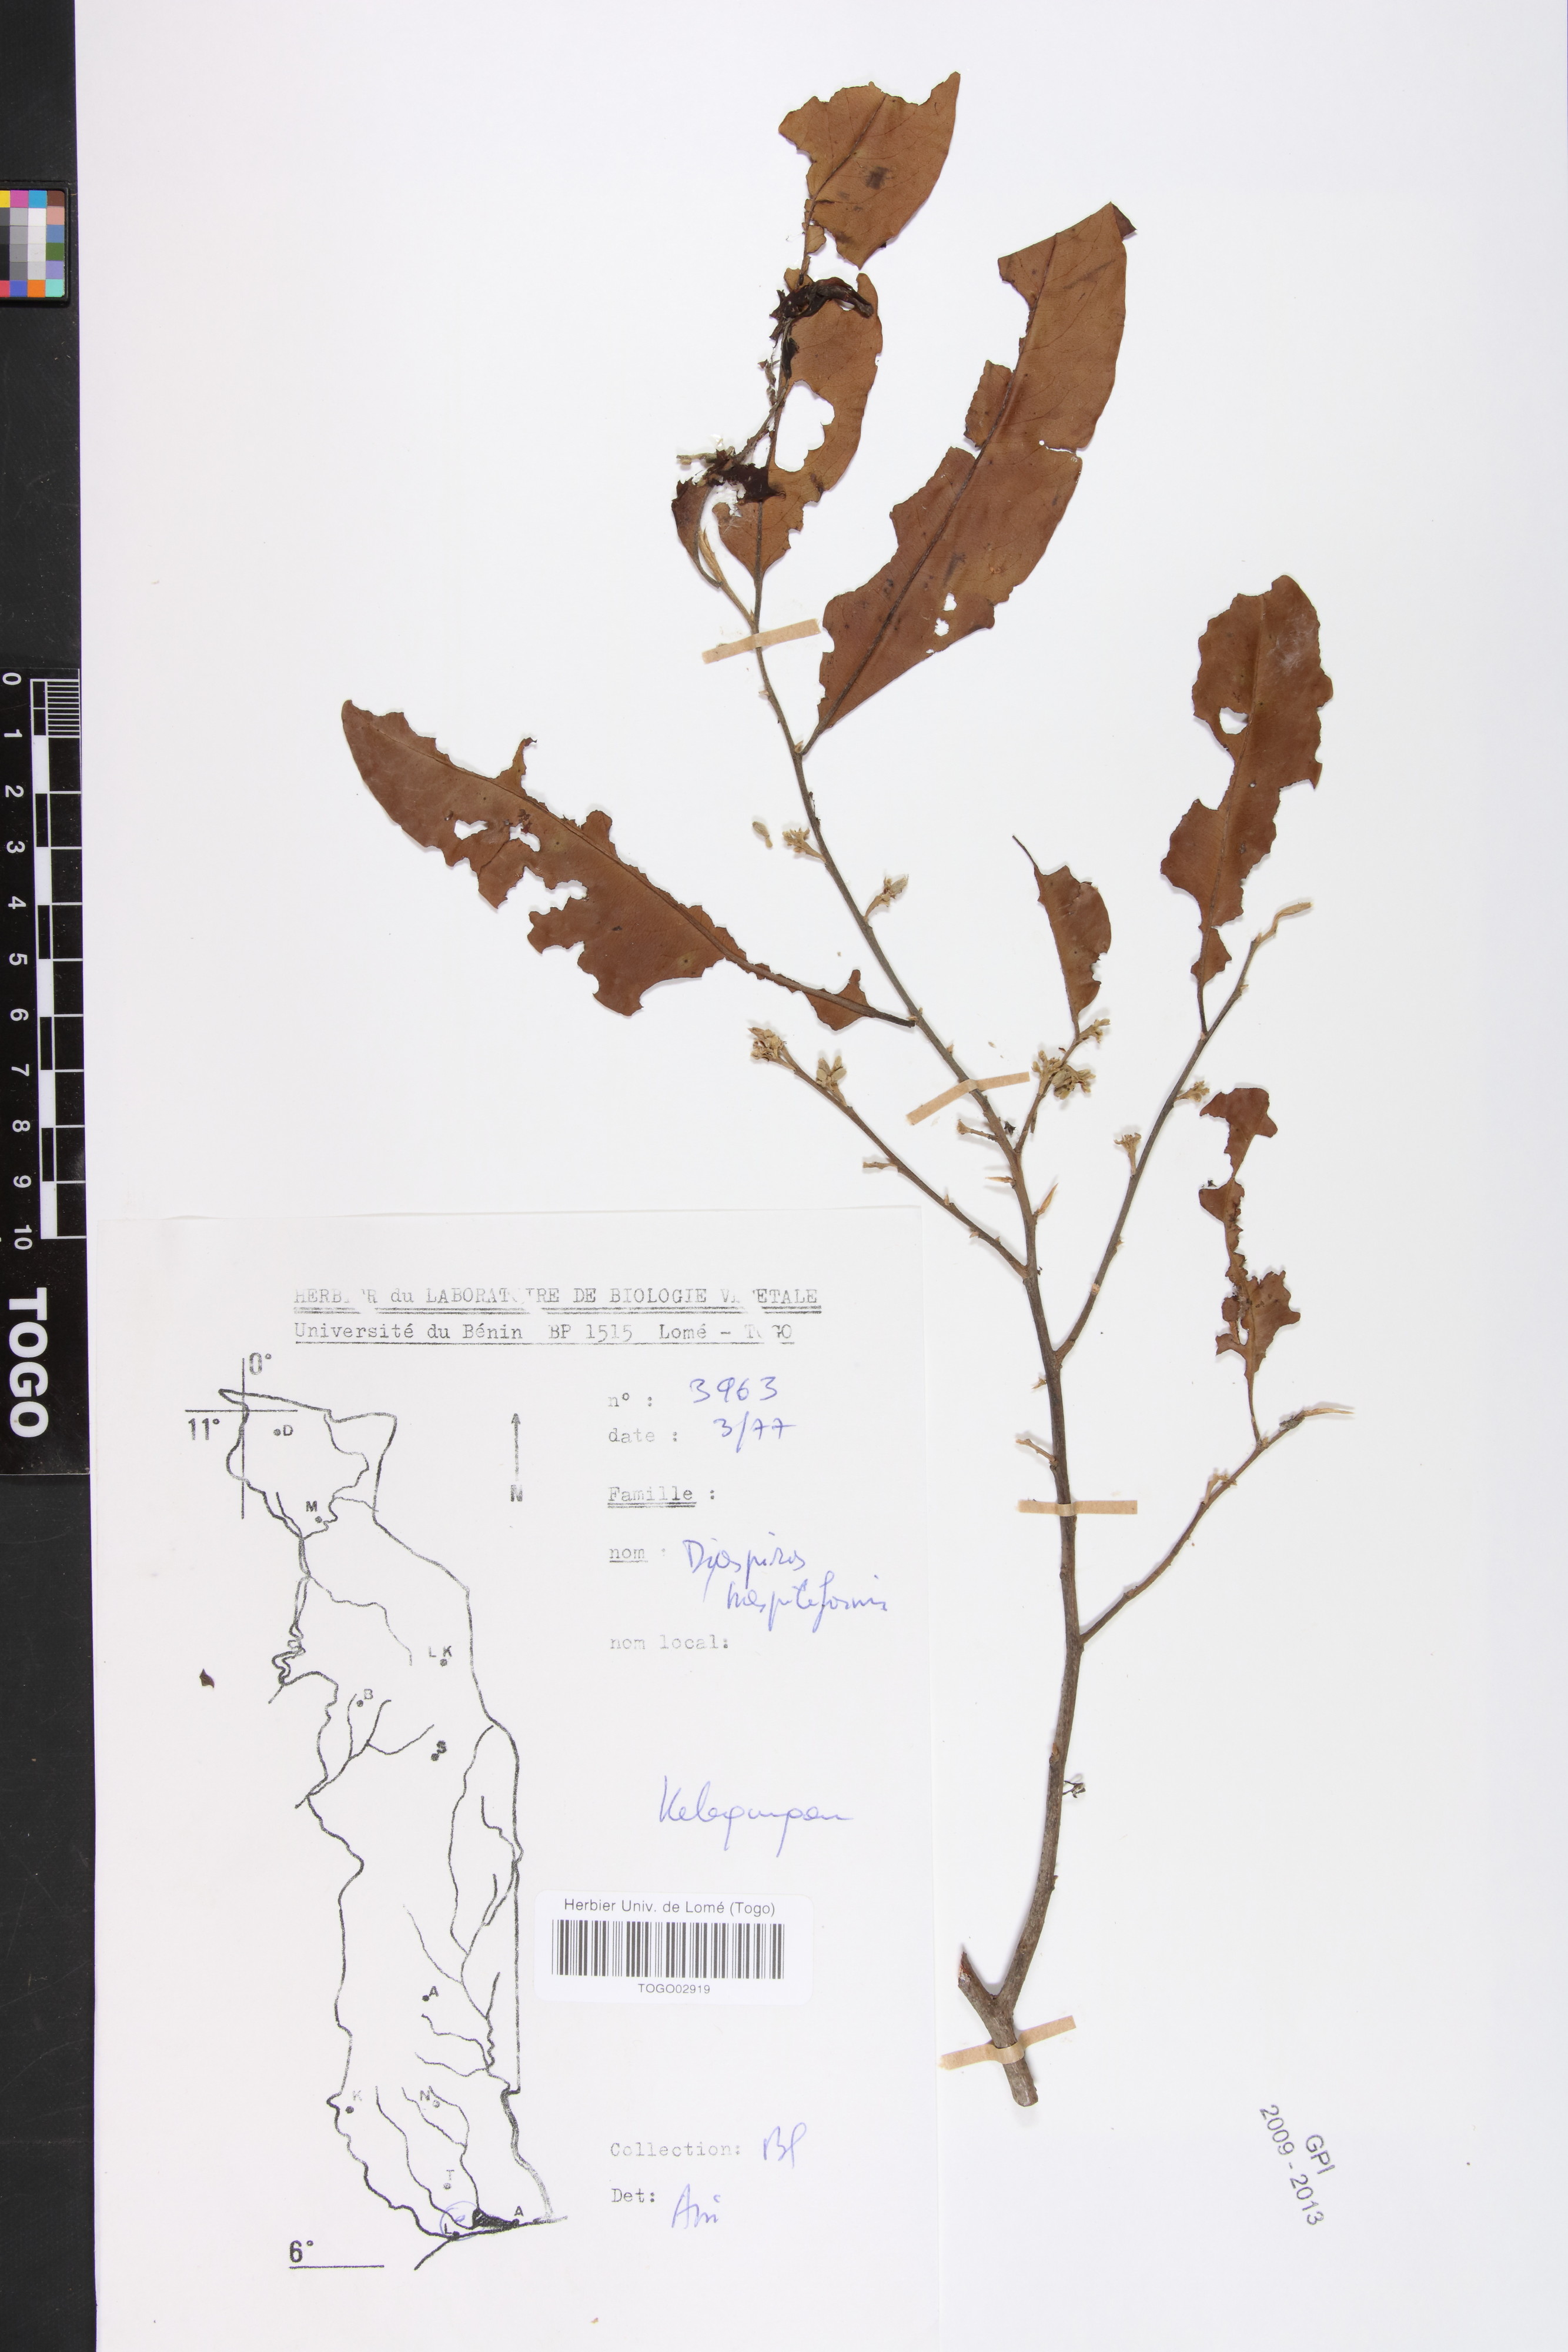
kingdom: Plantae
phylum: Tracheophyta
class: Magnoliopsida
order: Ericales
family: Ebenaceae
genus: Diospyros
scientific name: Diospyros mespiliformis
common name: Ebony diospyros
